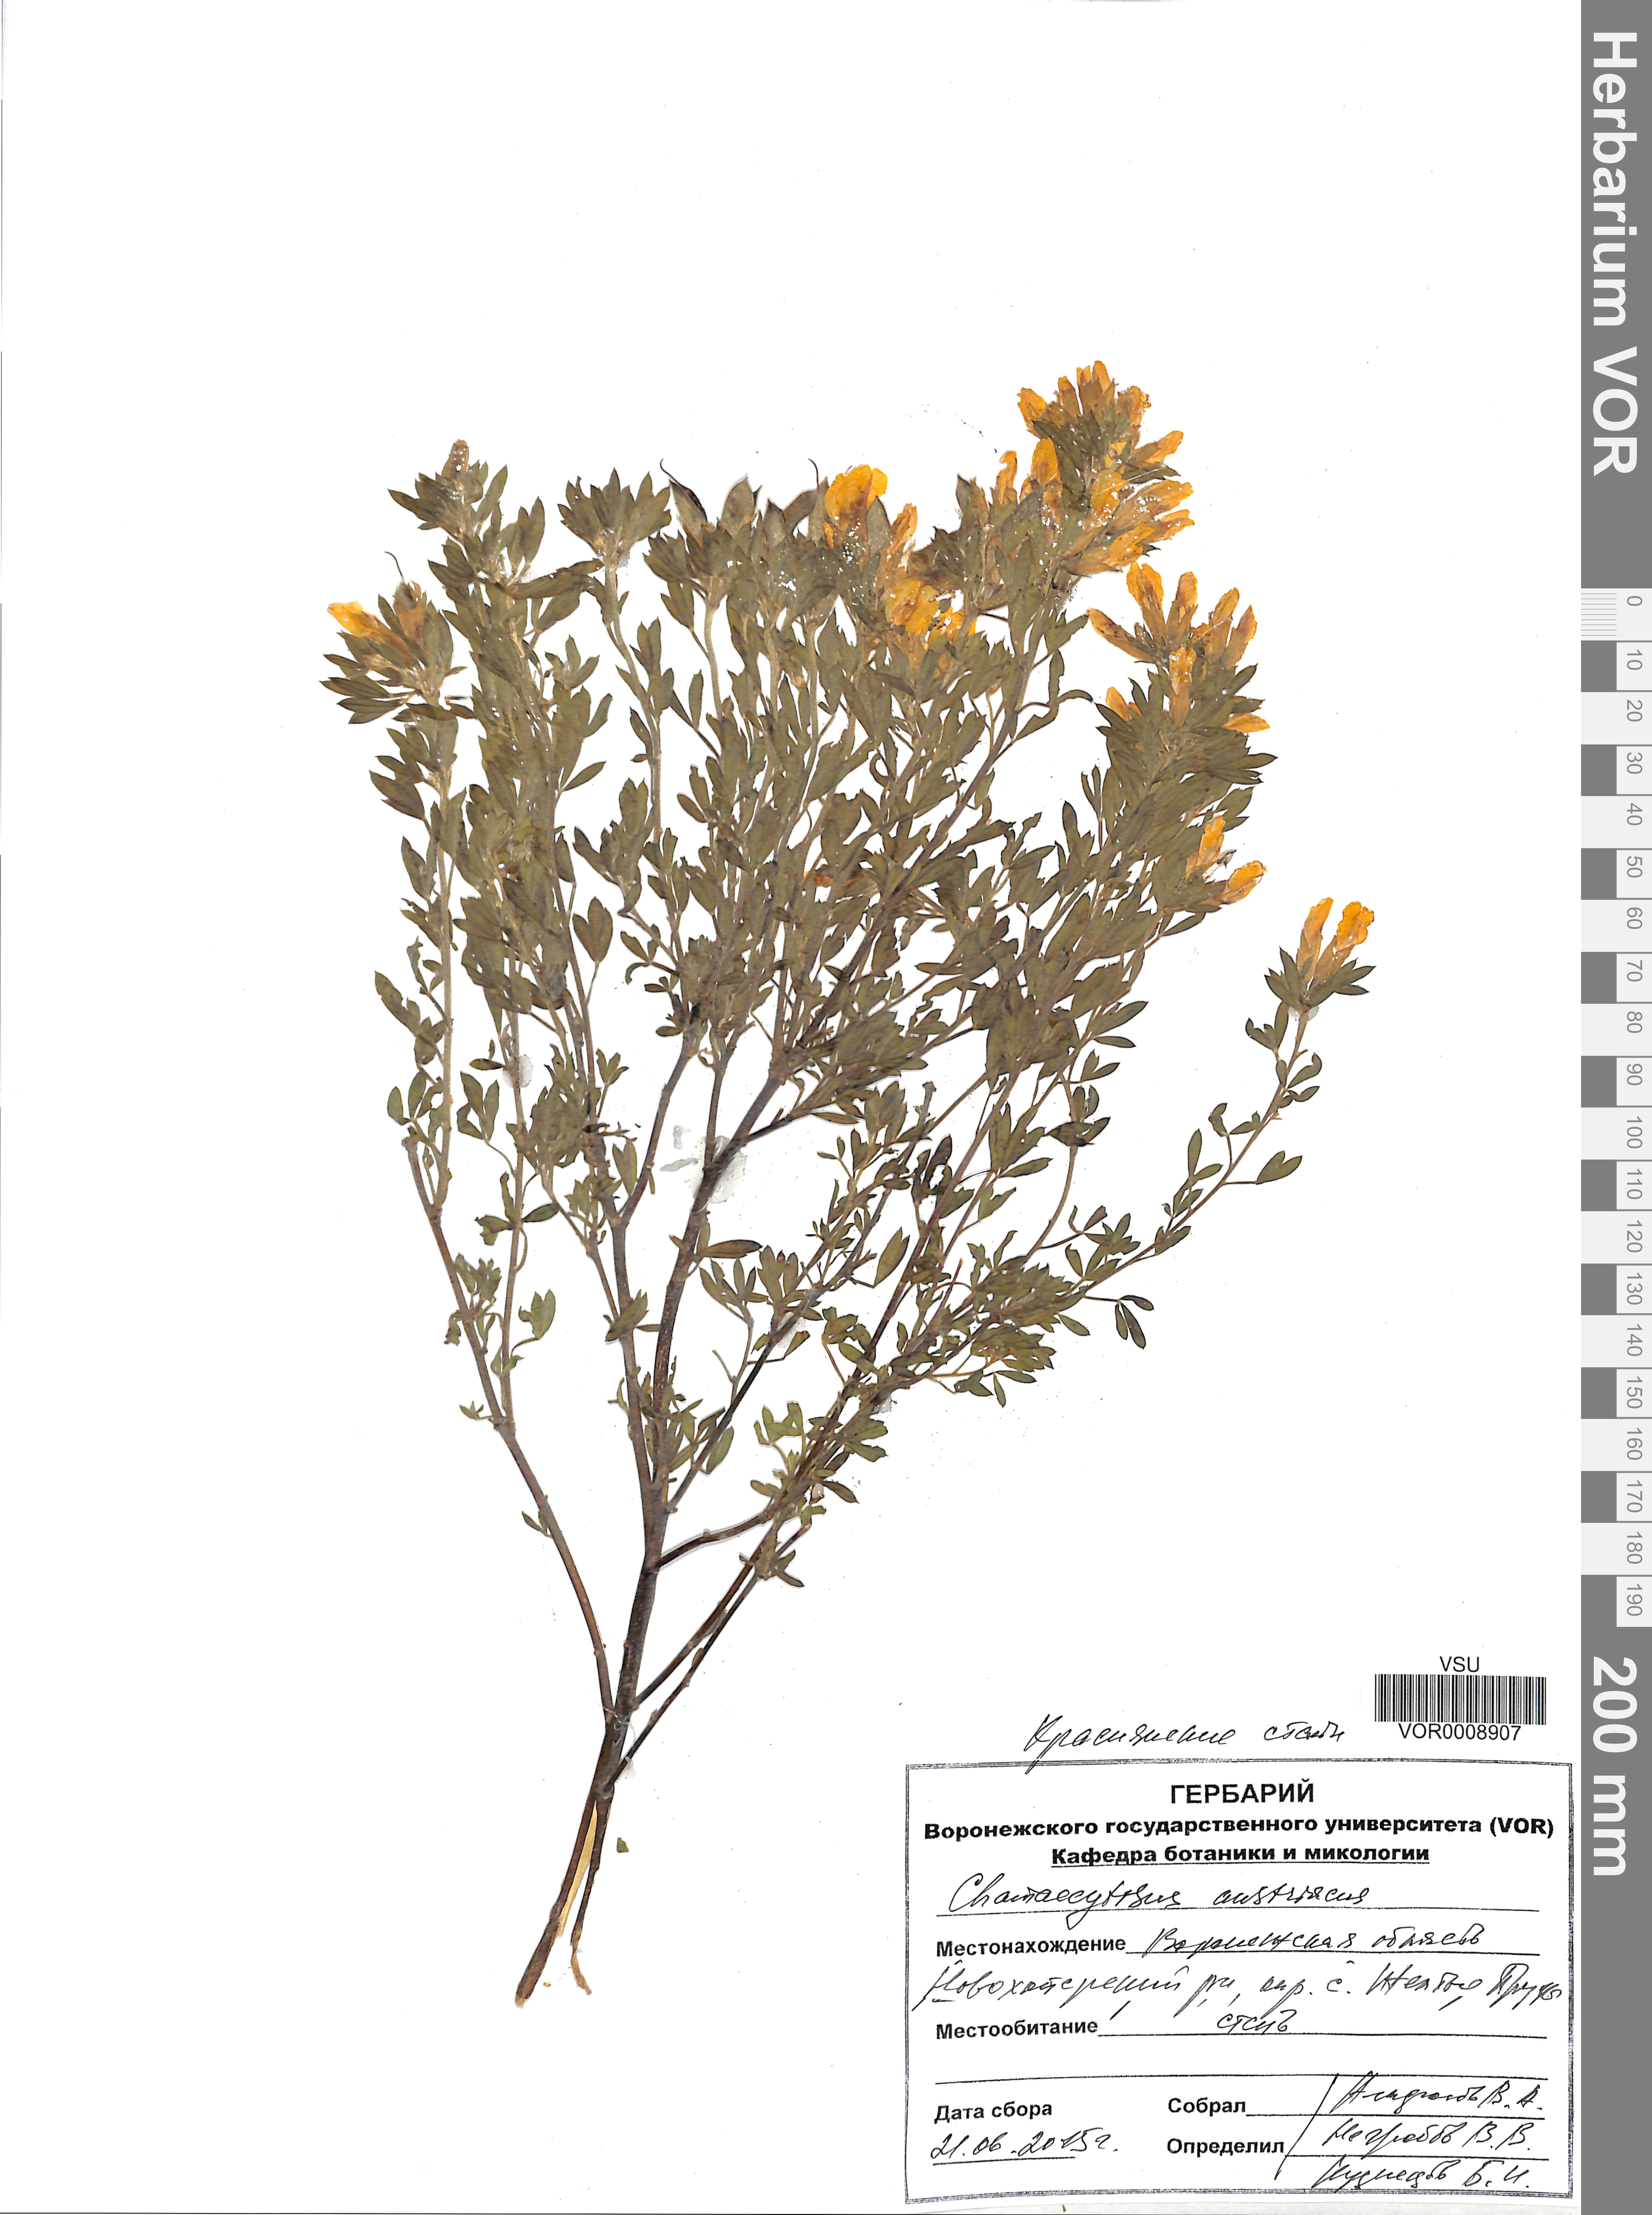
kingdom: Plantae
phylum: Tracheophyta
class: Magnoliopsida
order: Fabales
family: Fabaceae
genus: Chamaecytisus
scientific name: Chamaecytisus austriacus
